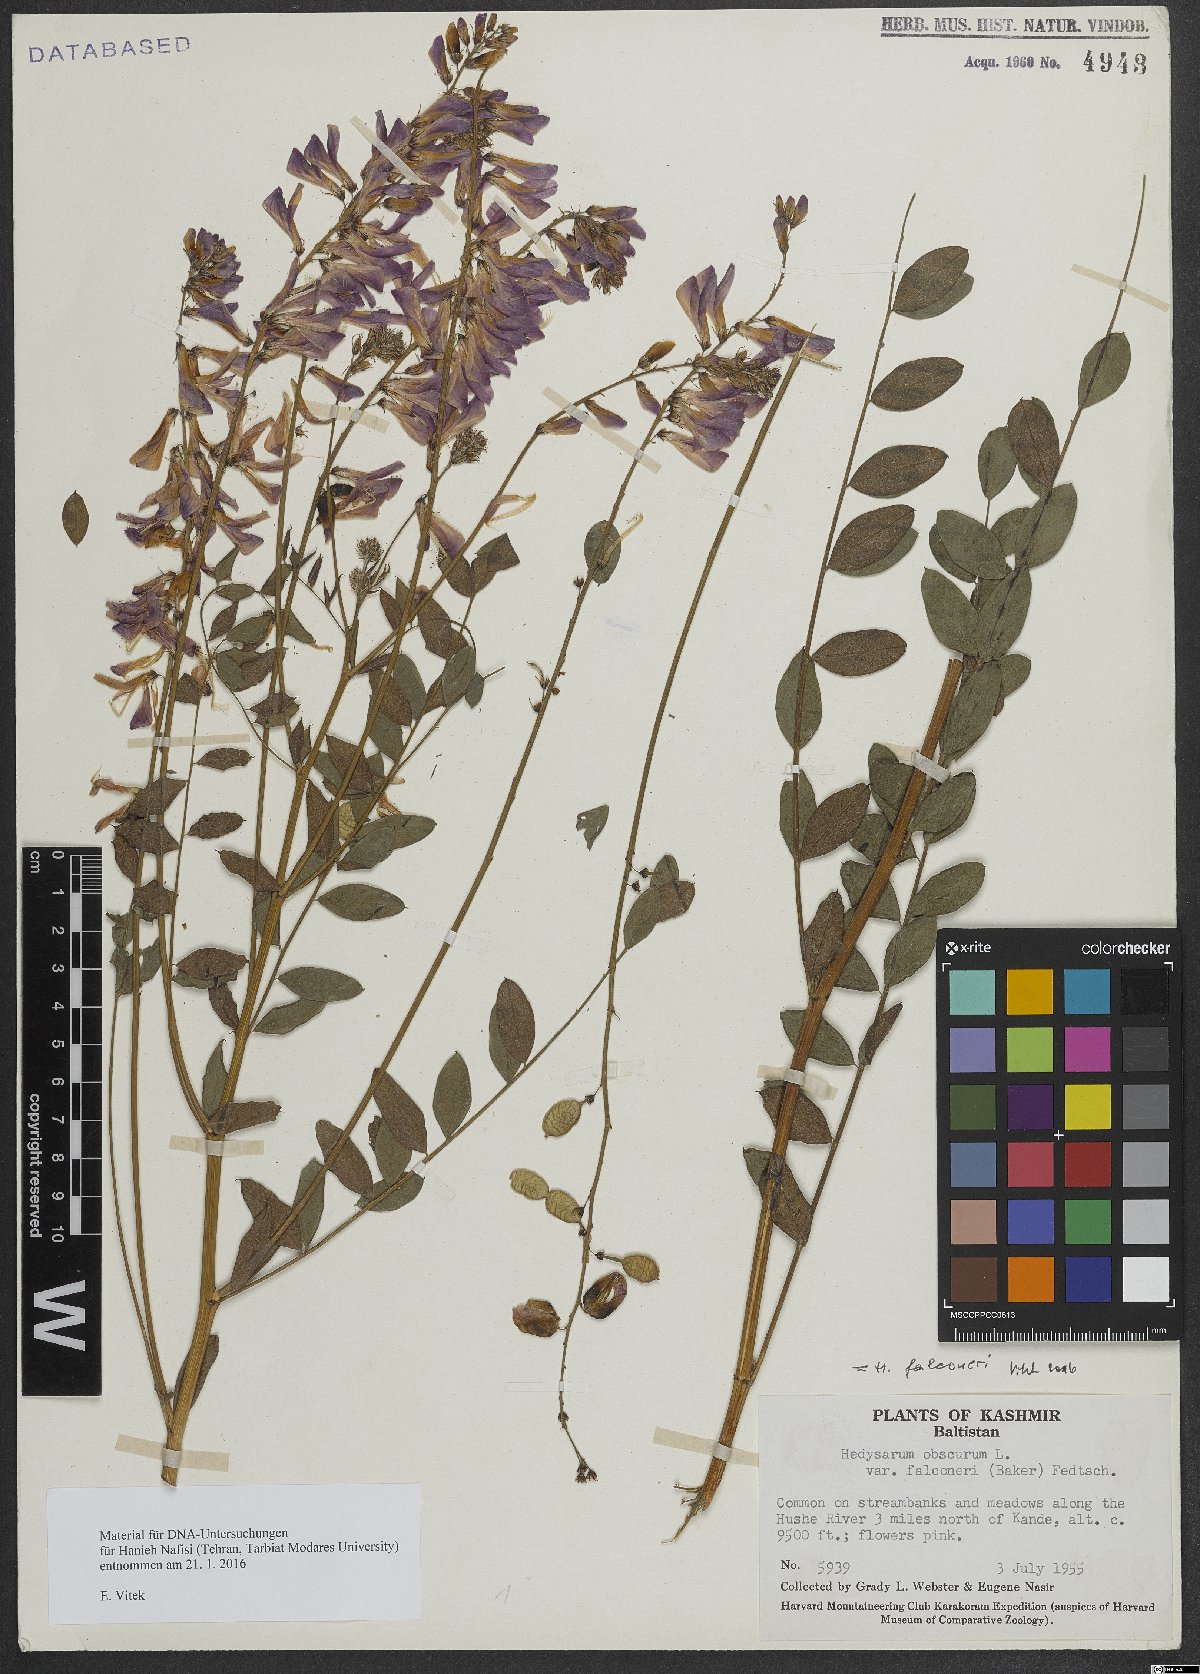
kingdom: Plantae
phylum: Tracheophyta
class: Magnoliopsida
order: Fabales
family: Fabaceae
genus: Hedysarum
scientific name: Hedysarum falconeri
